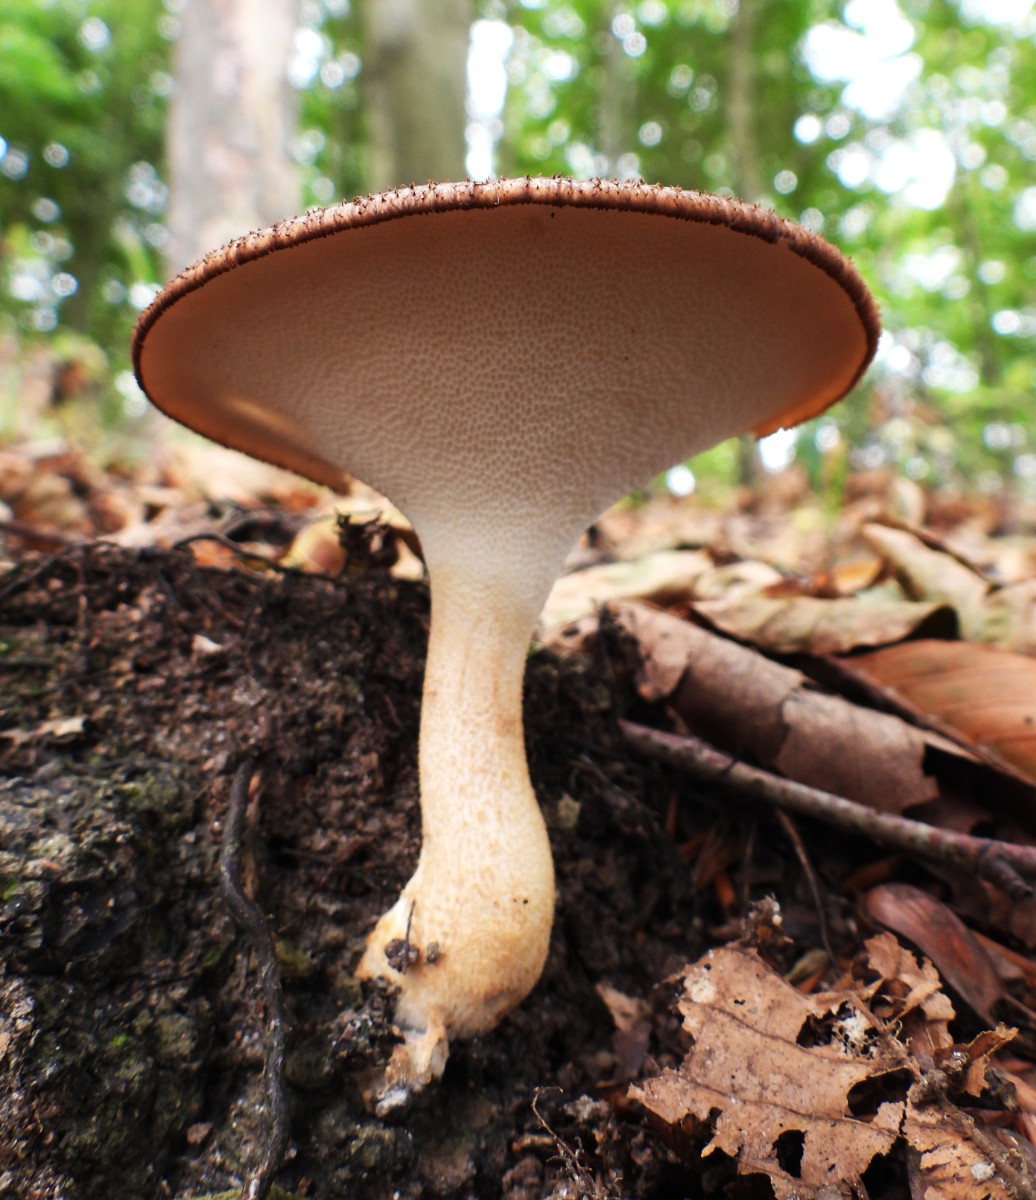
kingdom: Fungi
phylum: Basidiomycota
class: Agaricomycetes
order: Polyporales
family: Polyporaceae
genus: Polyporus
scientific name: Polyporus tuberaster
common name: knoldet stilkporesvamp
